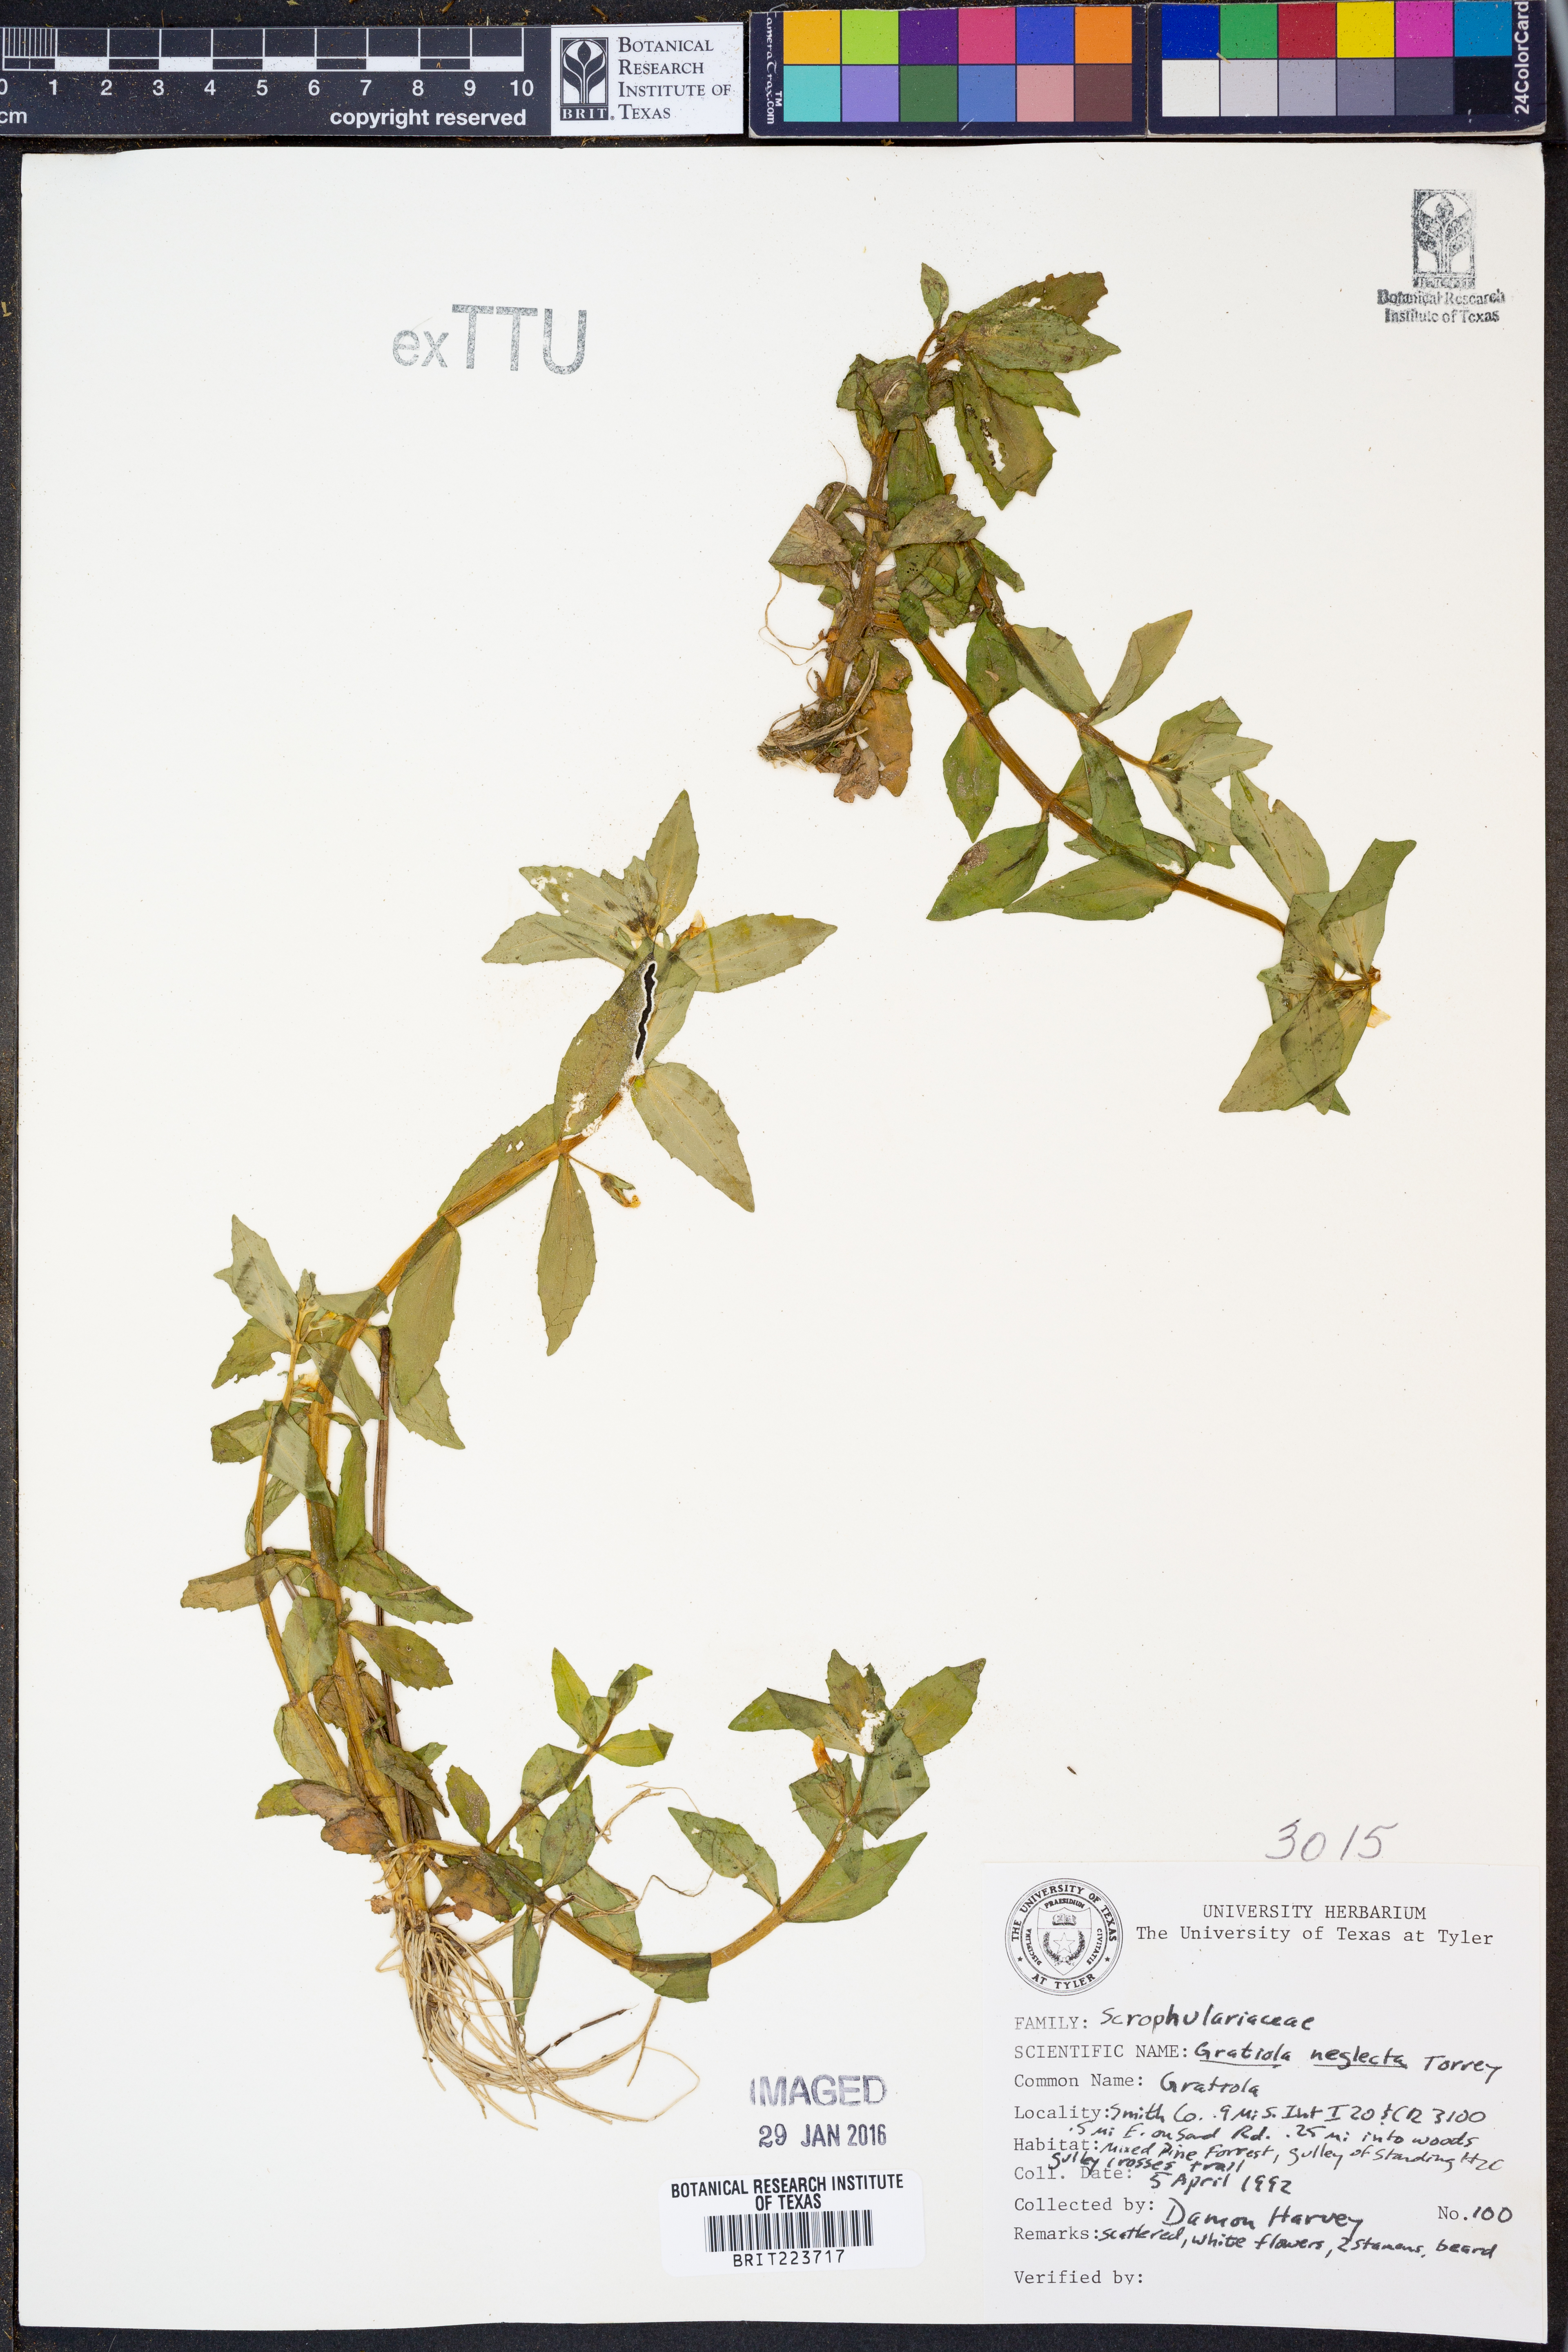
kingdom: Plantae
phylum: Tracheophyta
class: Magnoliopsida
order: Lamiales
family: Plantaginaceae
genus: Gratiola
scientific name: Gratiola neglecta
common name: American hedge-hyssop
